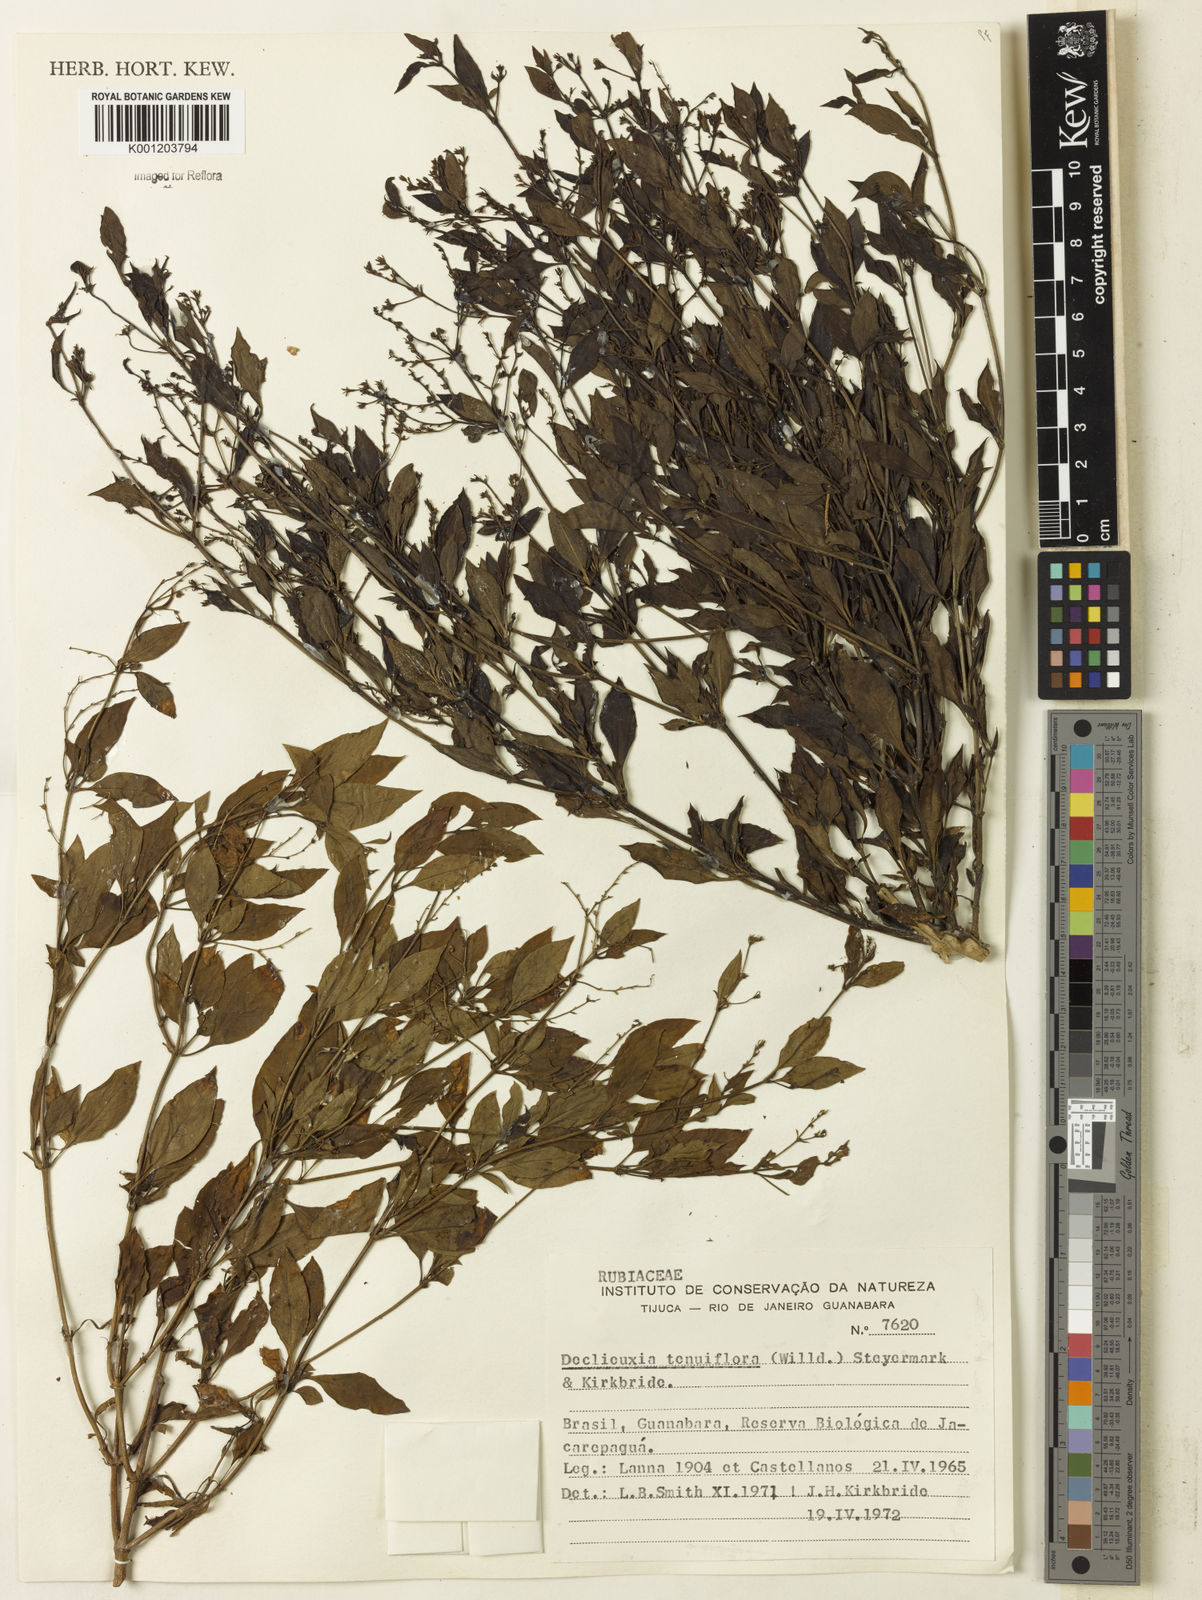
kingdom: Plantae
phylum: Tracheophyta
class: Magnoliopsida
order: Gentianales
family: Rubiaceae
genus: Declieuxia
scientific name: Declieuxia tenuiflora
